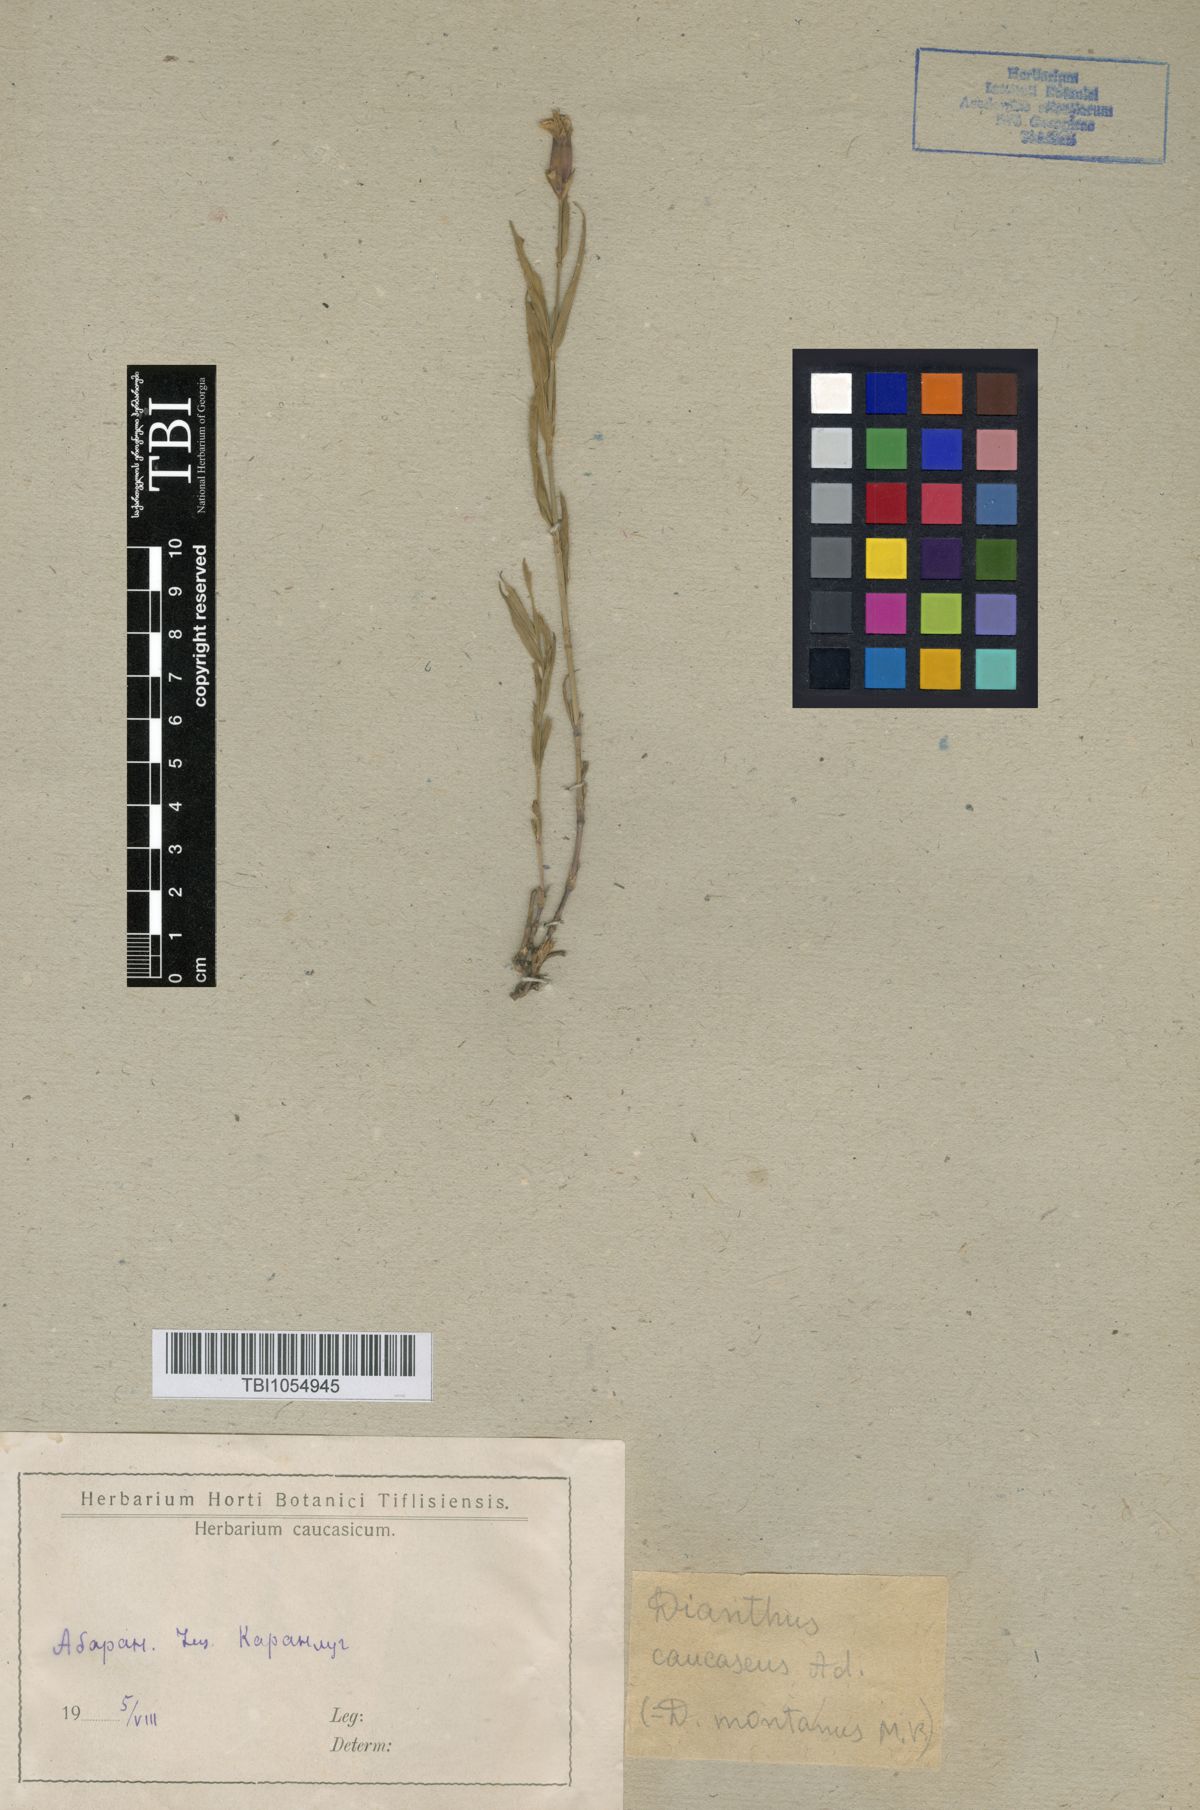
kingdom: Plantae
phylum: Tracheophyta
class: Magnoliopsida
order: Caryophyllales
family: Caryophyllaceae
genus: Dianthus
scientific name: Dianthus caucaseus
